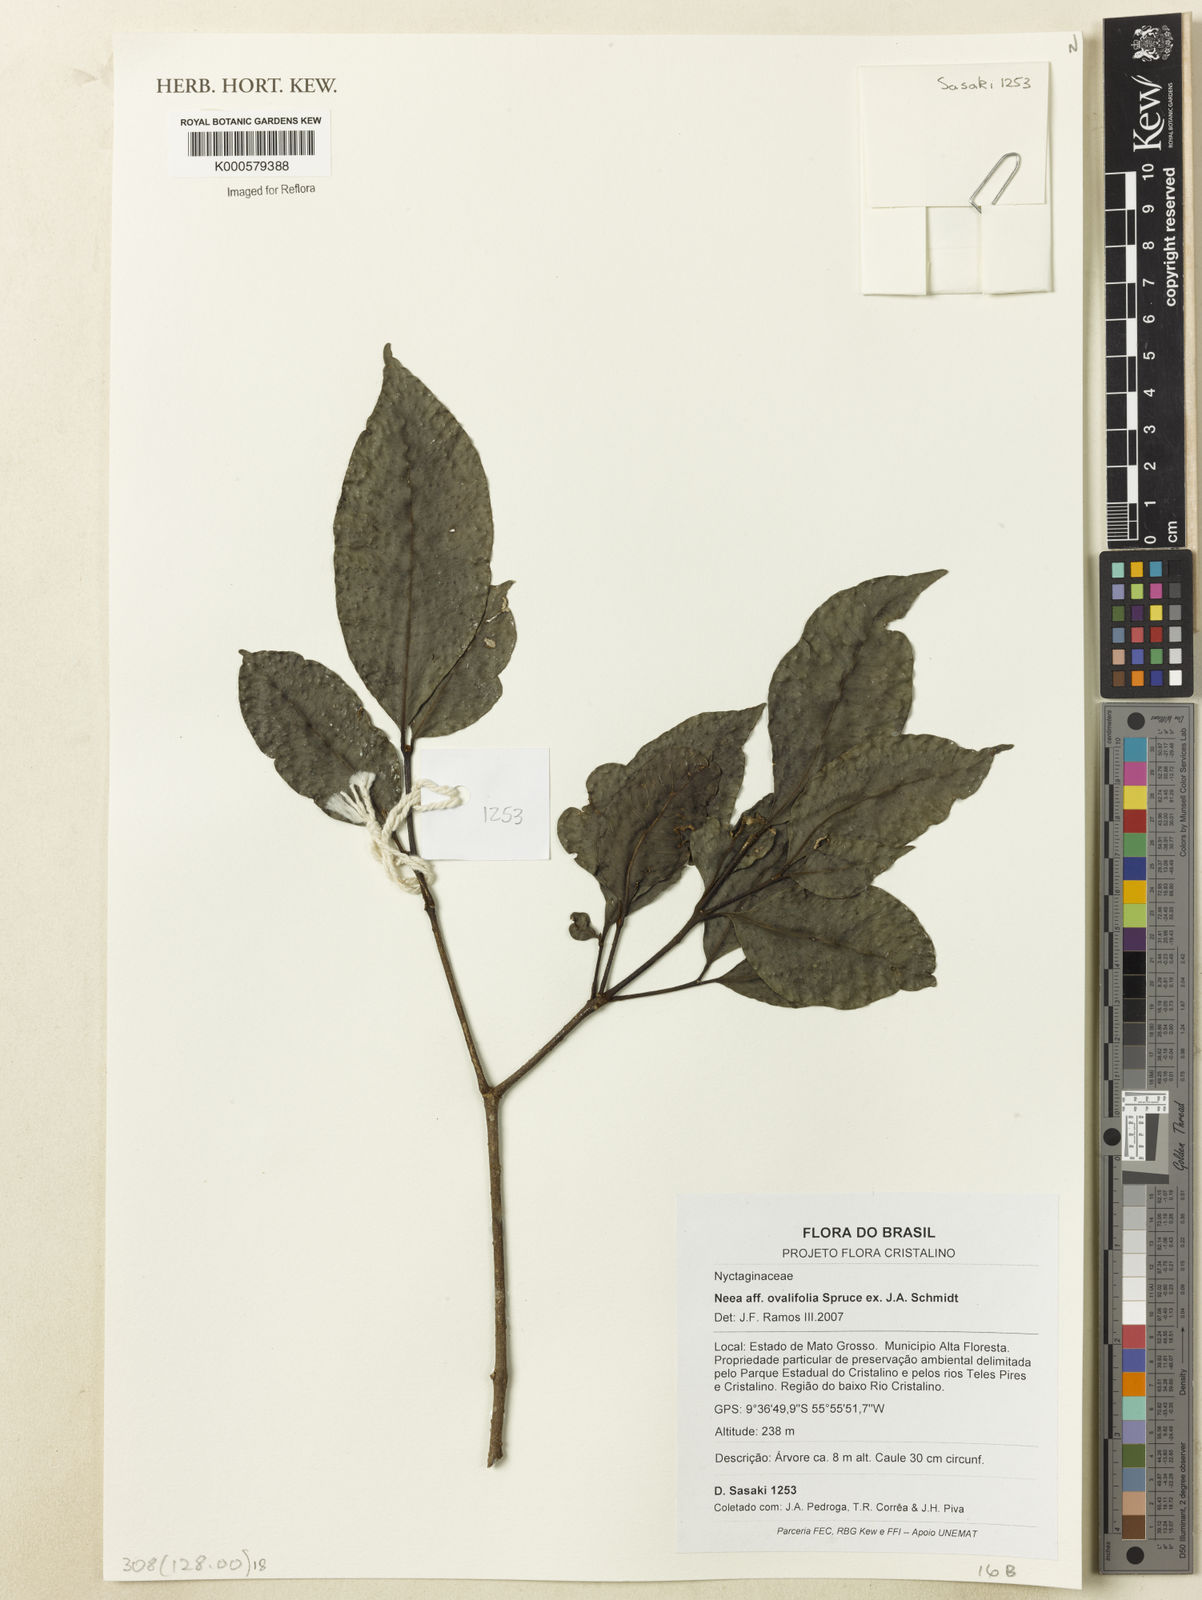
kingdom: Plantae
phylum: Tracheophyta
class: Magnoliopsida
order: Caryophyllales
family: Nyctaginaceae
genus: Neea
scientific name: Neea ovalifolia
